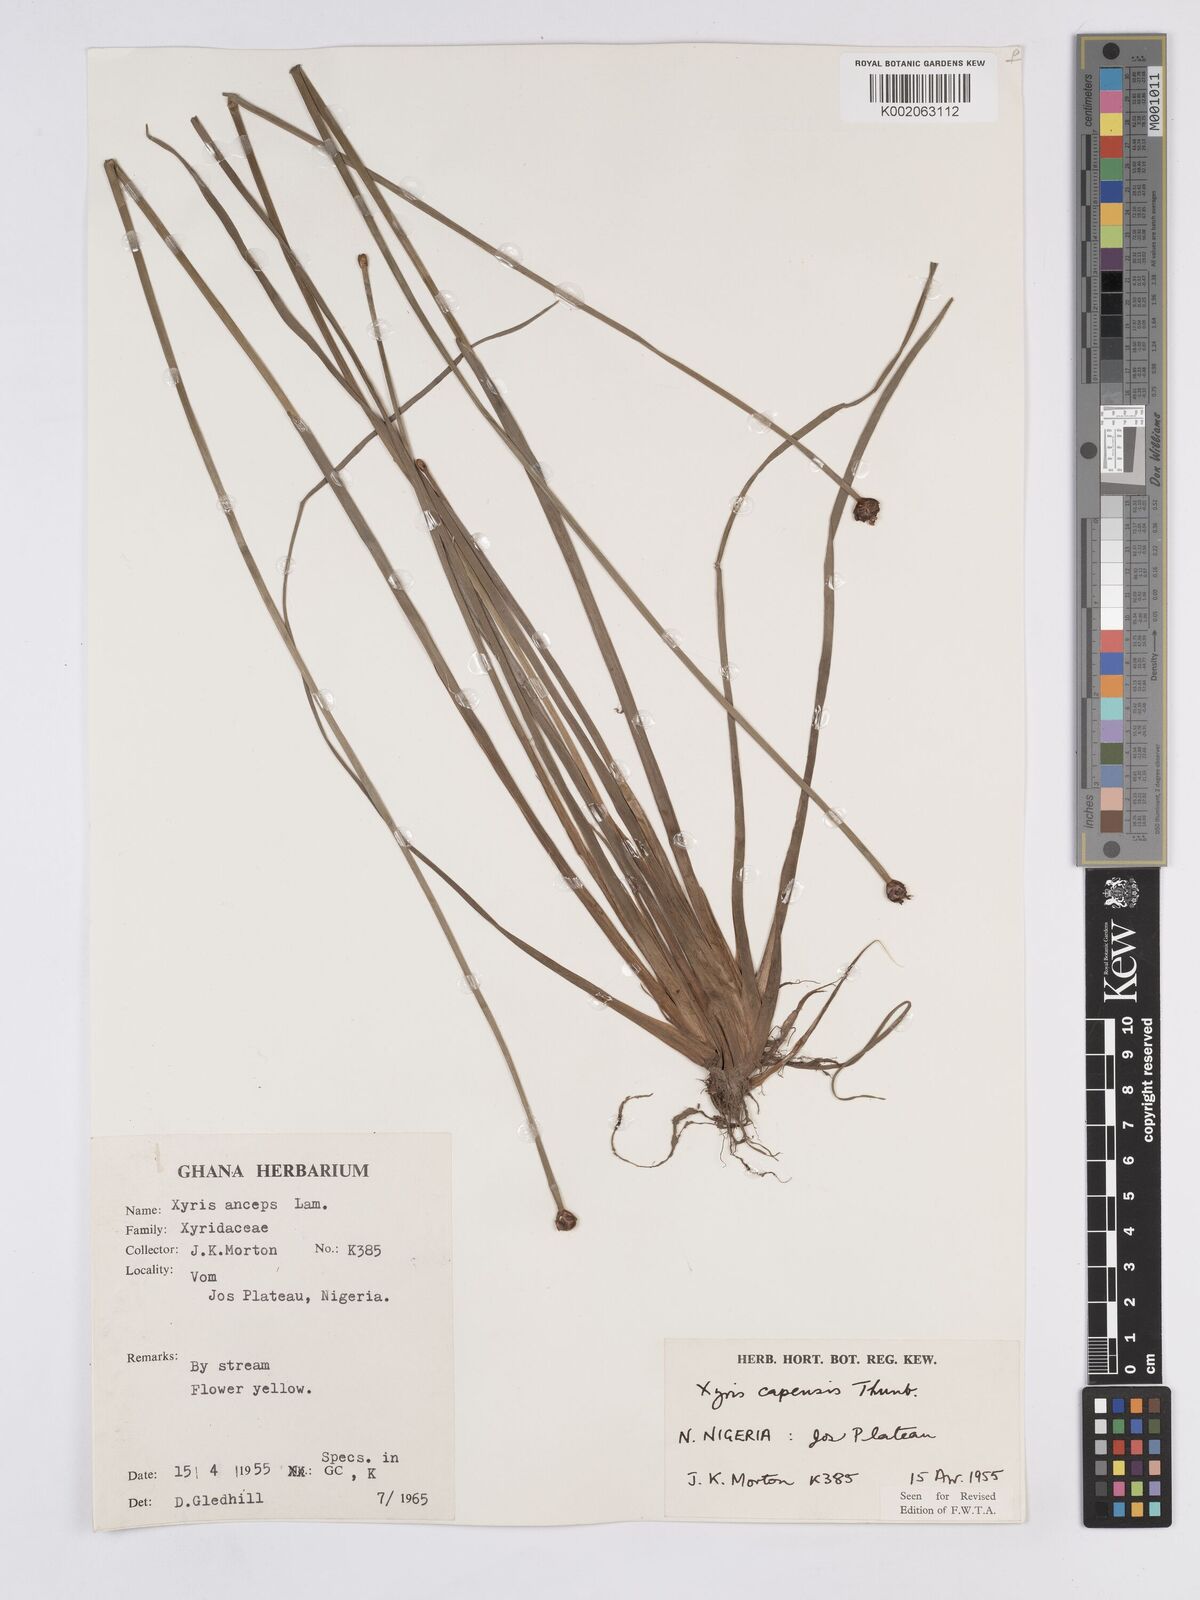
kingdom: Plantae
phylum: Tracheophyta
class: Liliopsida
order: Poales
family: Xyridaceae
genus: Xyris
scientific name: Xyris capensis
